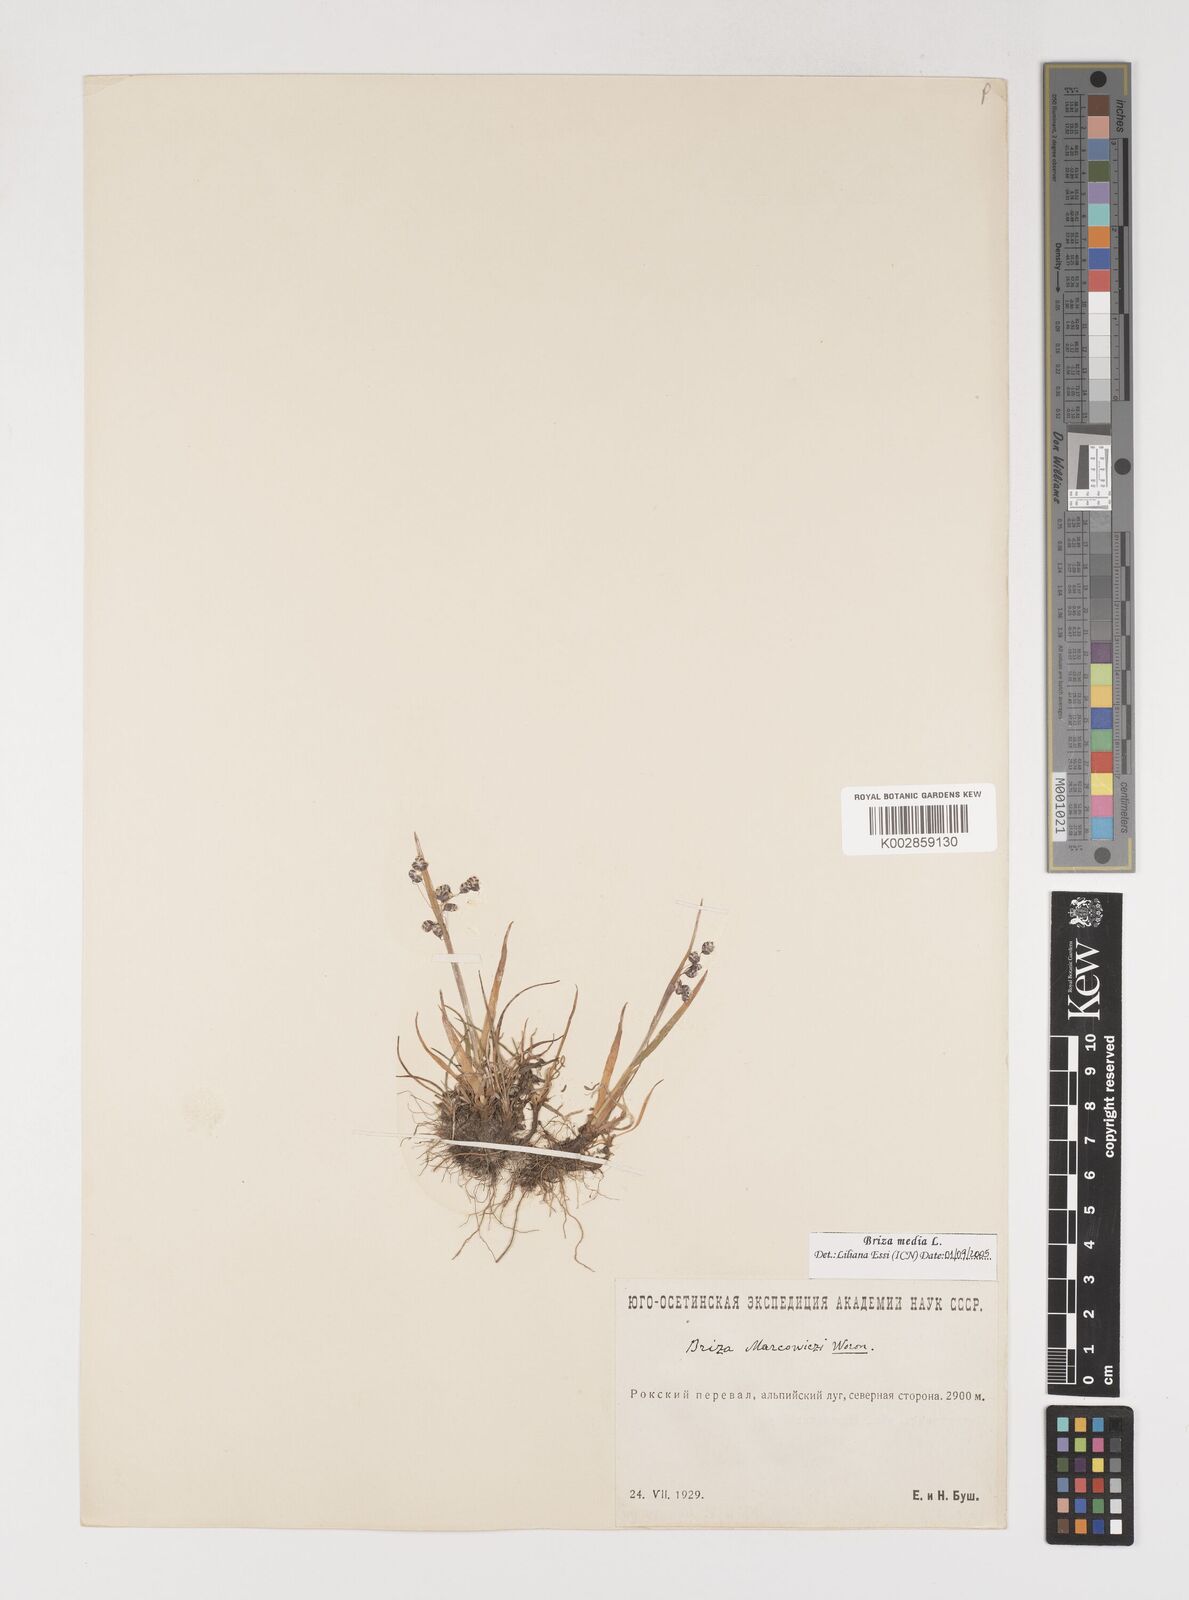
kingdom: Plantae
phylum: Tracheophyta
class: Liliopsida
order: Poales
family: Poaceae
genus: Briza
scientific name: Briza marcowiczii
